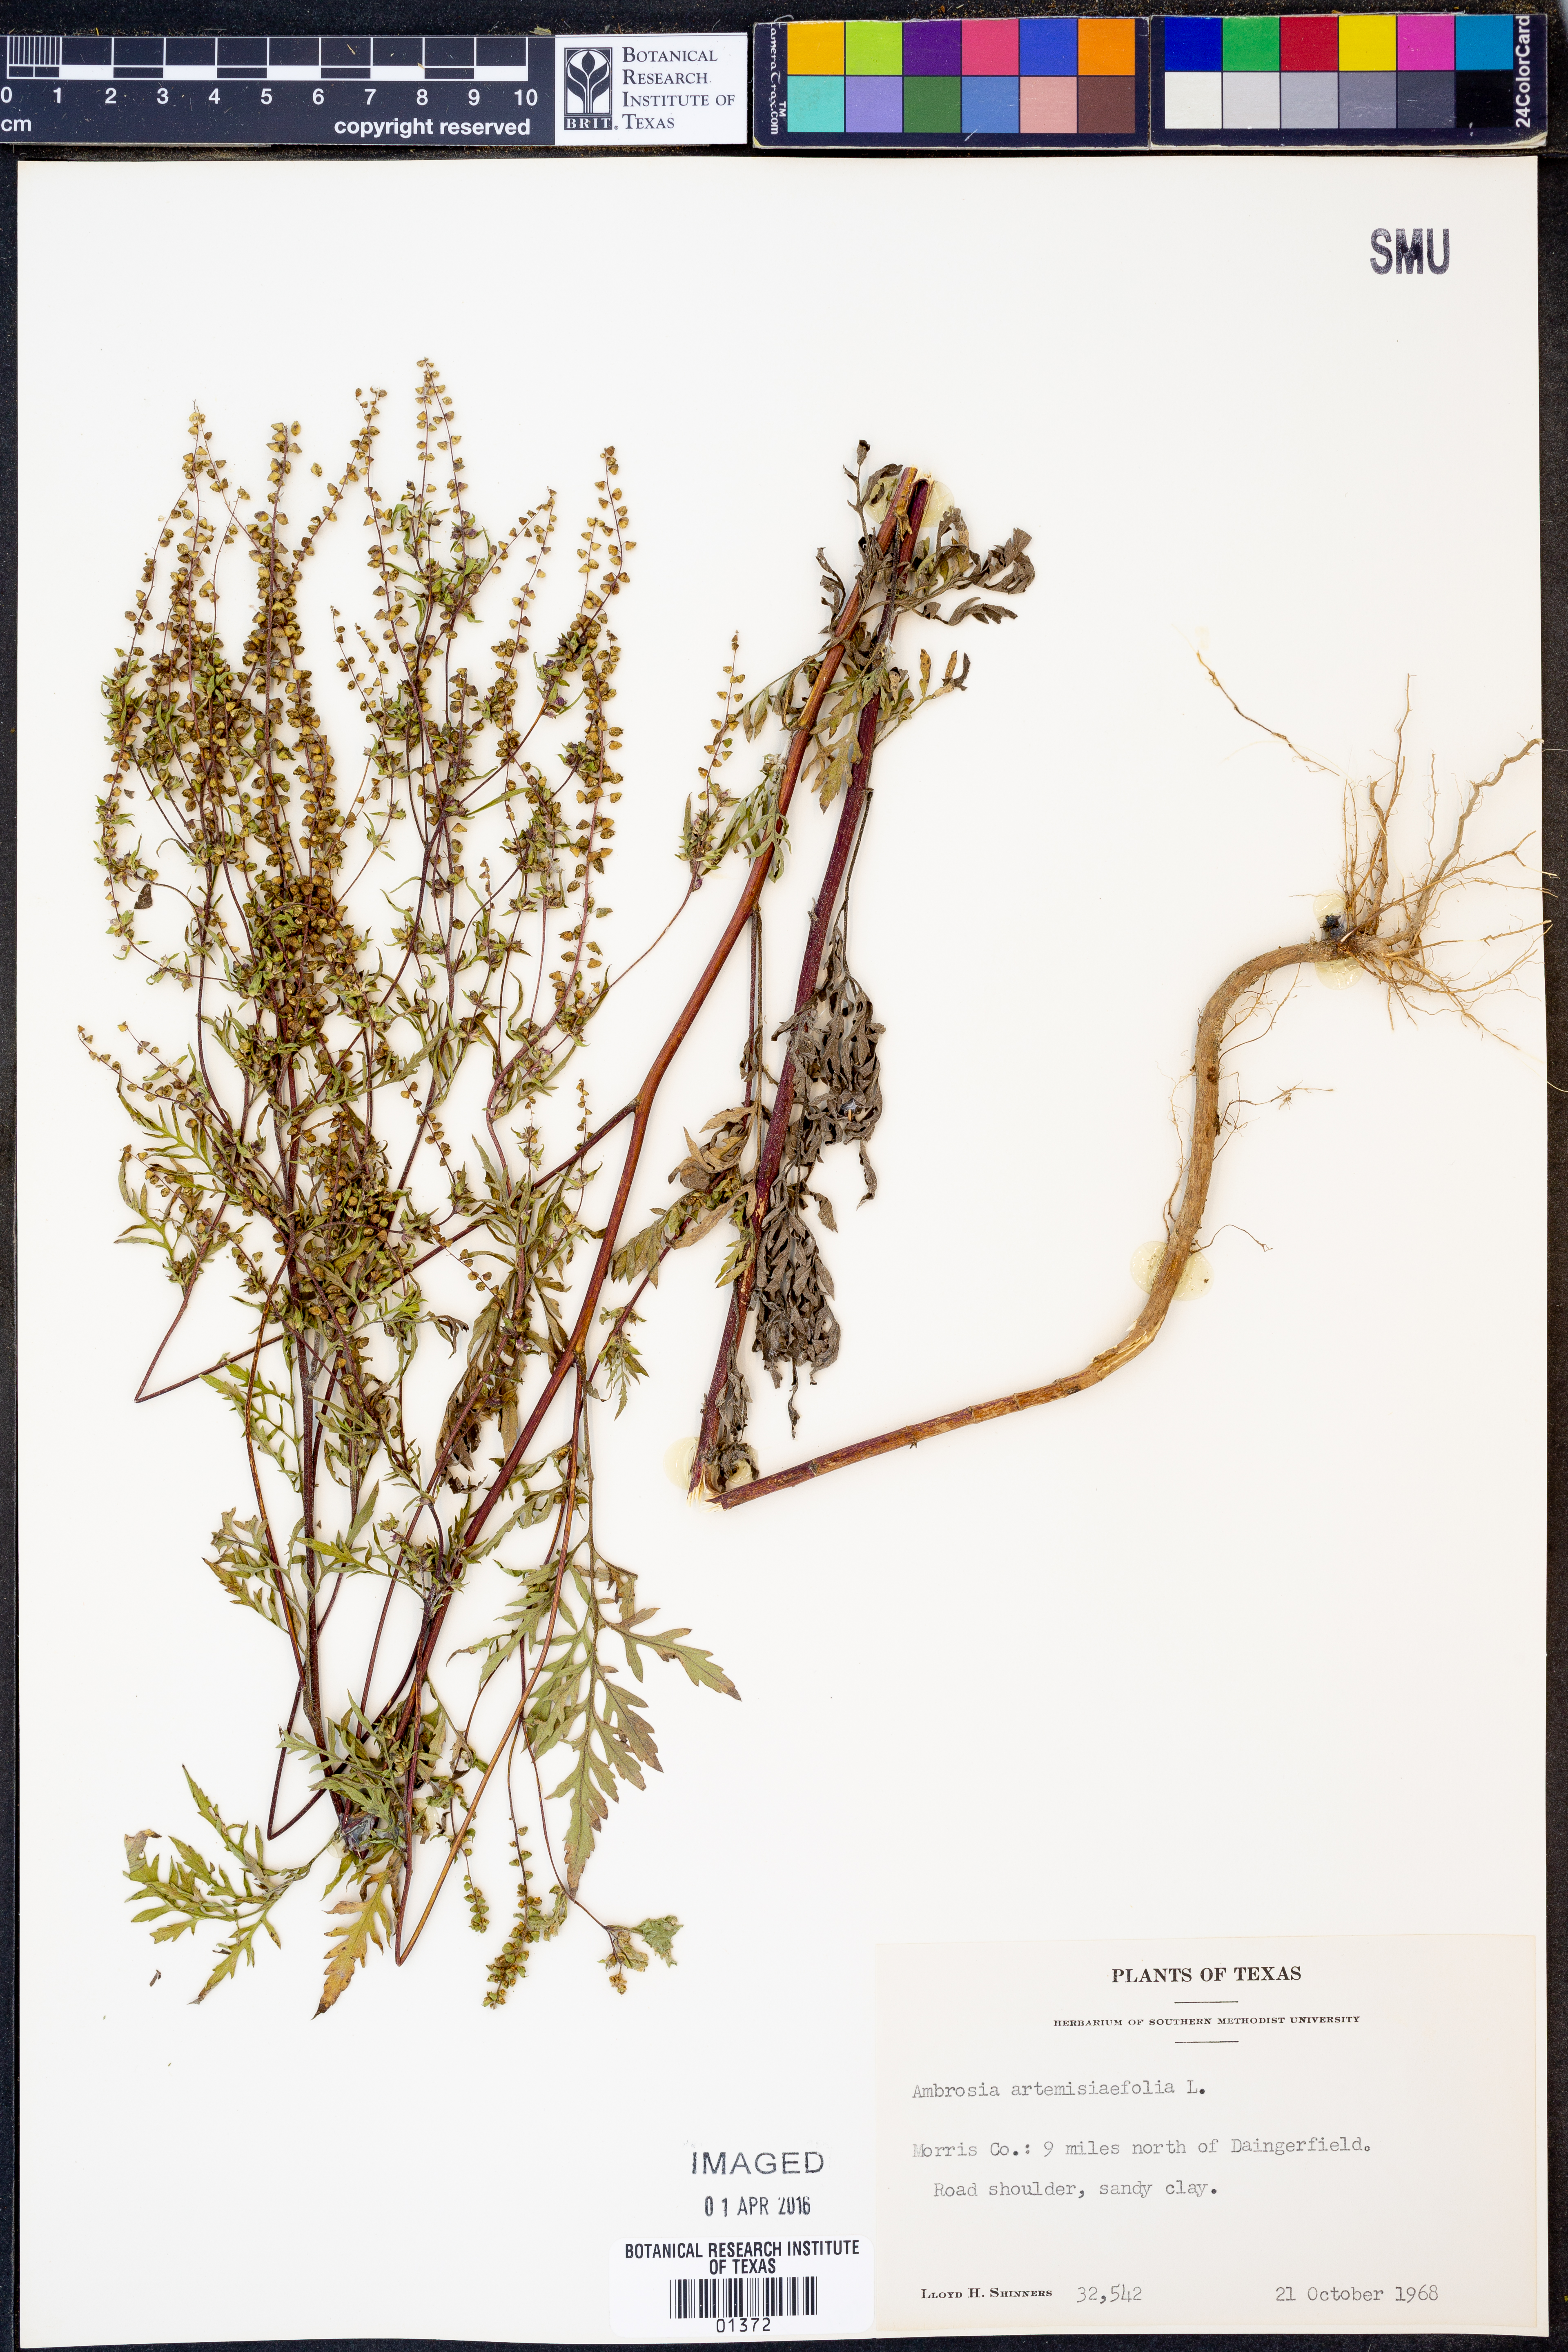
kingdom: Plantae
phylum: Tracheophyta
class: Magnoliopsida
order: Asterales
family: Asteraceae
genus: Ambrosia
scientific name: Ambrosia artemisiifolia
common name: Annual ragweed
